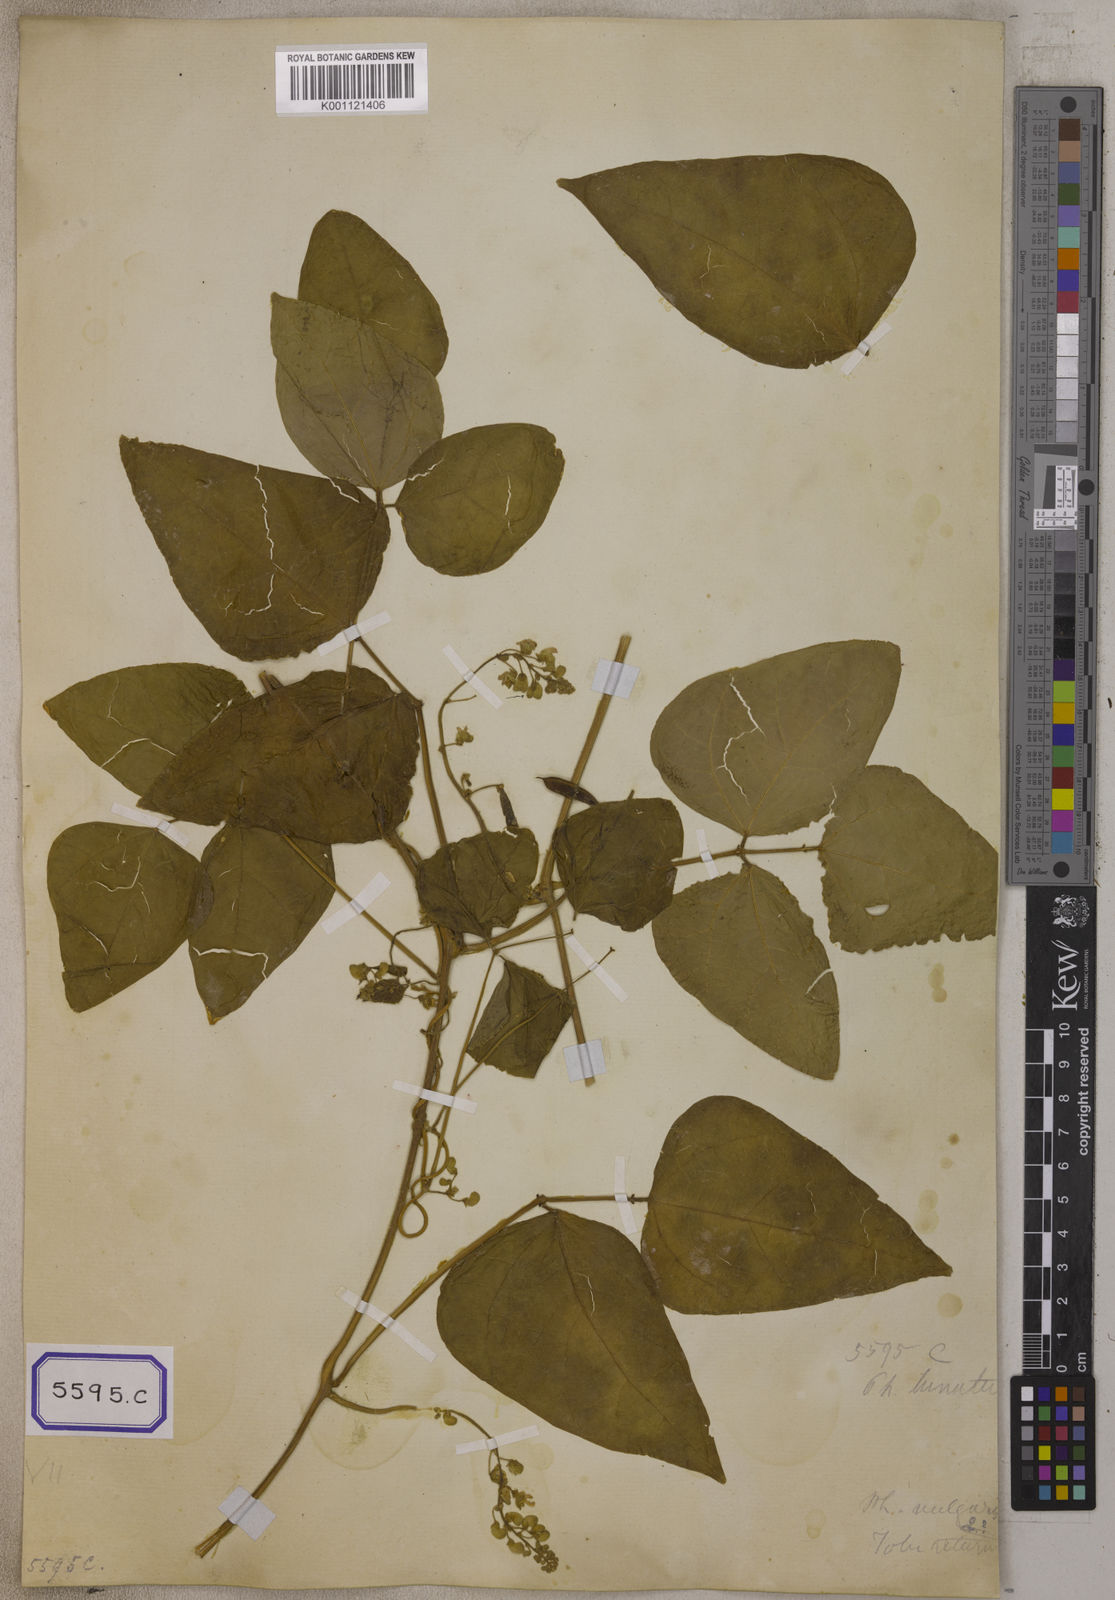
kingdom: Plantae
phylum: Tracheophyta
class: Magnoliopsida
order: Fabales
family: Fabaceae
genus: Phaseolus
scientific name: Phaseolus vulgaris
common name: Bean
